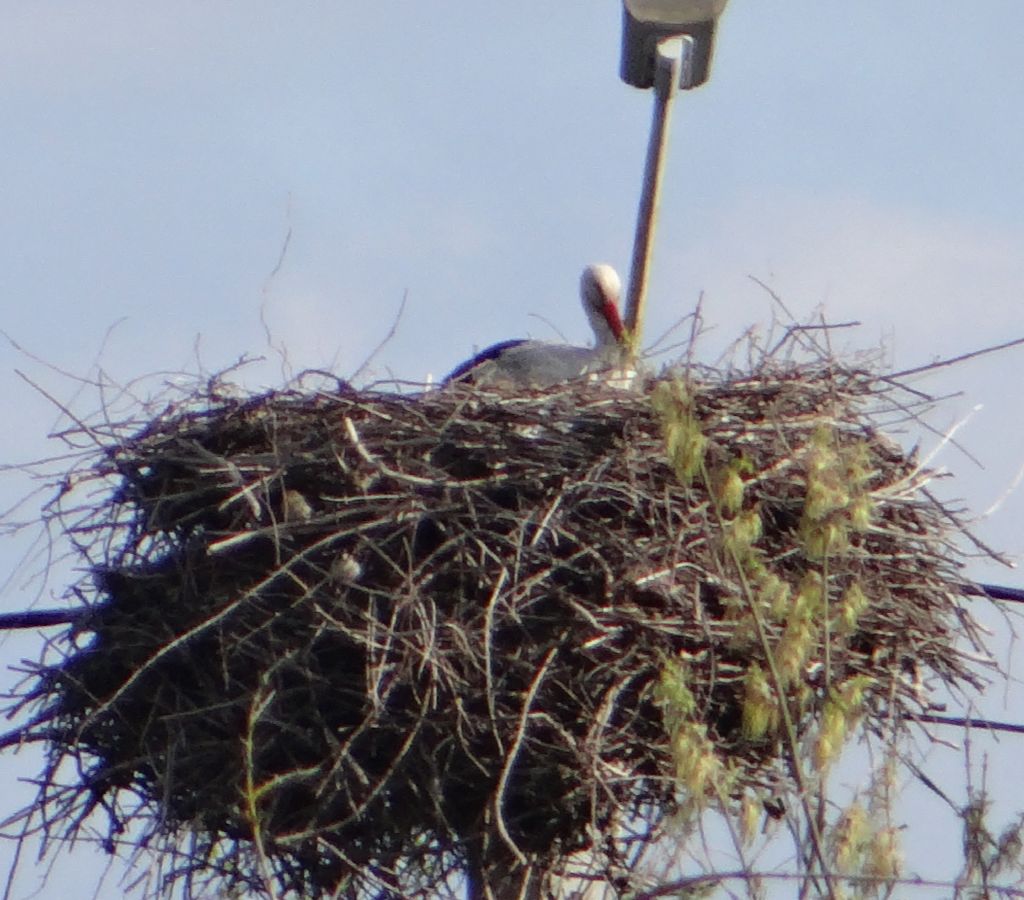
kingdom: Animalia
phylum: Chordata
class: Aves
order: Ciconiiformes
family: Ciconiidae
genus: Ciconia
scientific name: Ciconia ciconia
